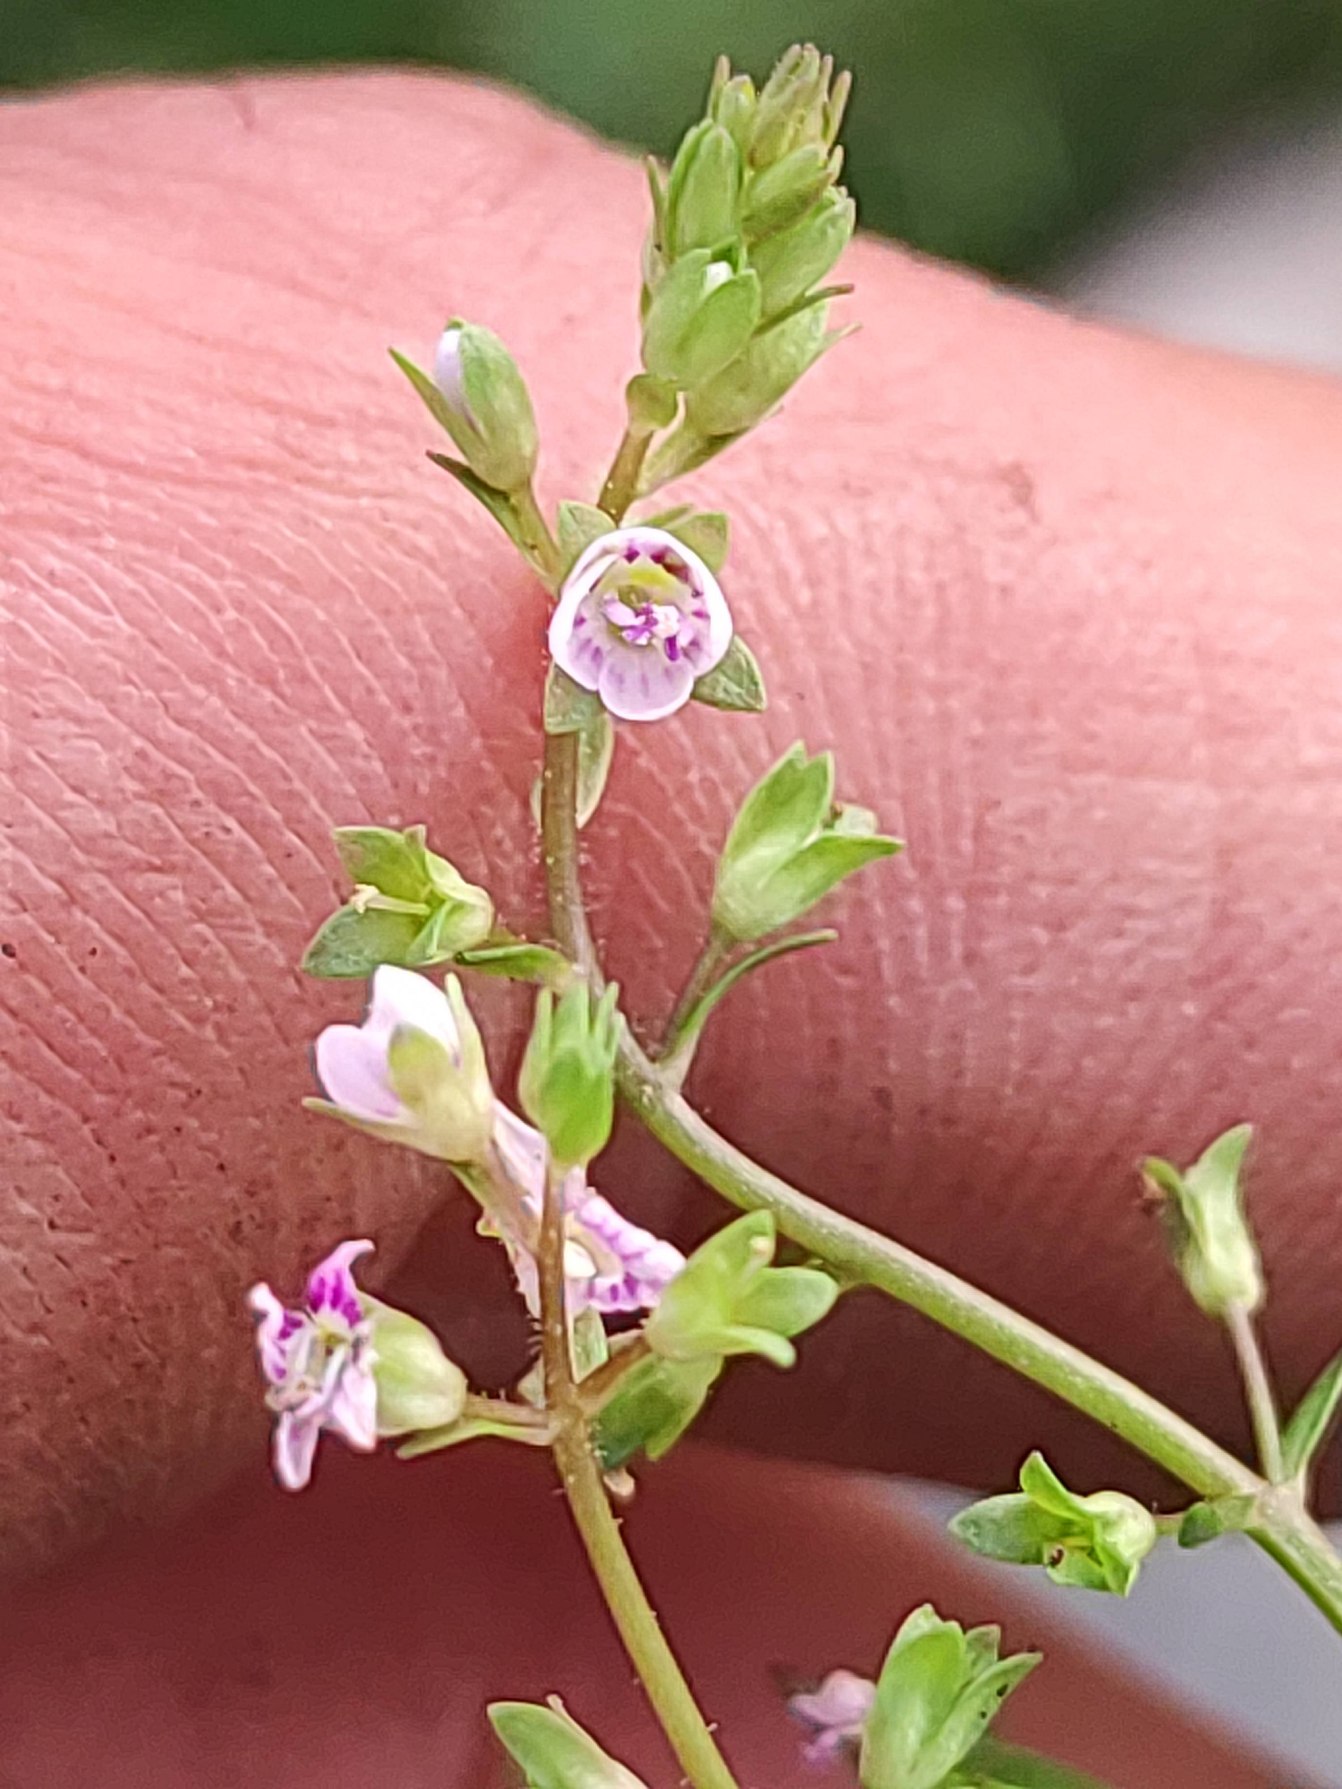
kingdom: Plantae
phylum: Tracheophyta
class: Magnoliopsida
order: Lamiales
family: Plantaginaceae
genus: Veronica
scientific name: Veronica catenata
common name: Vand-ærenpris
